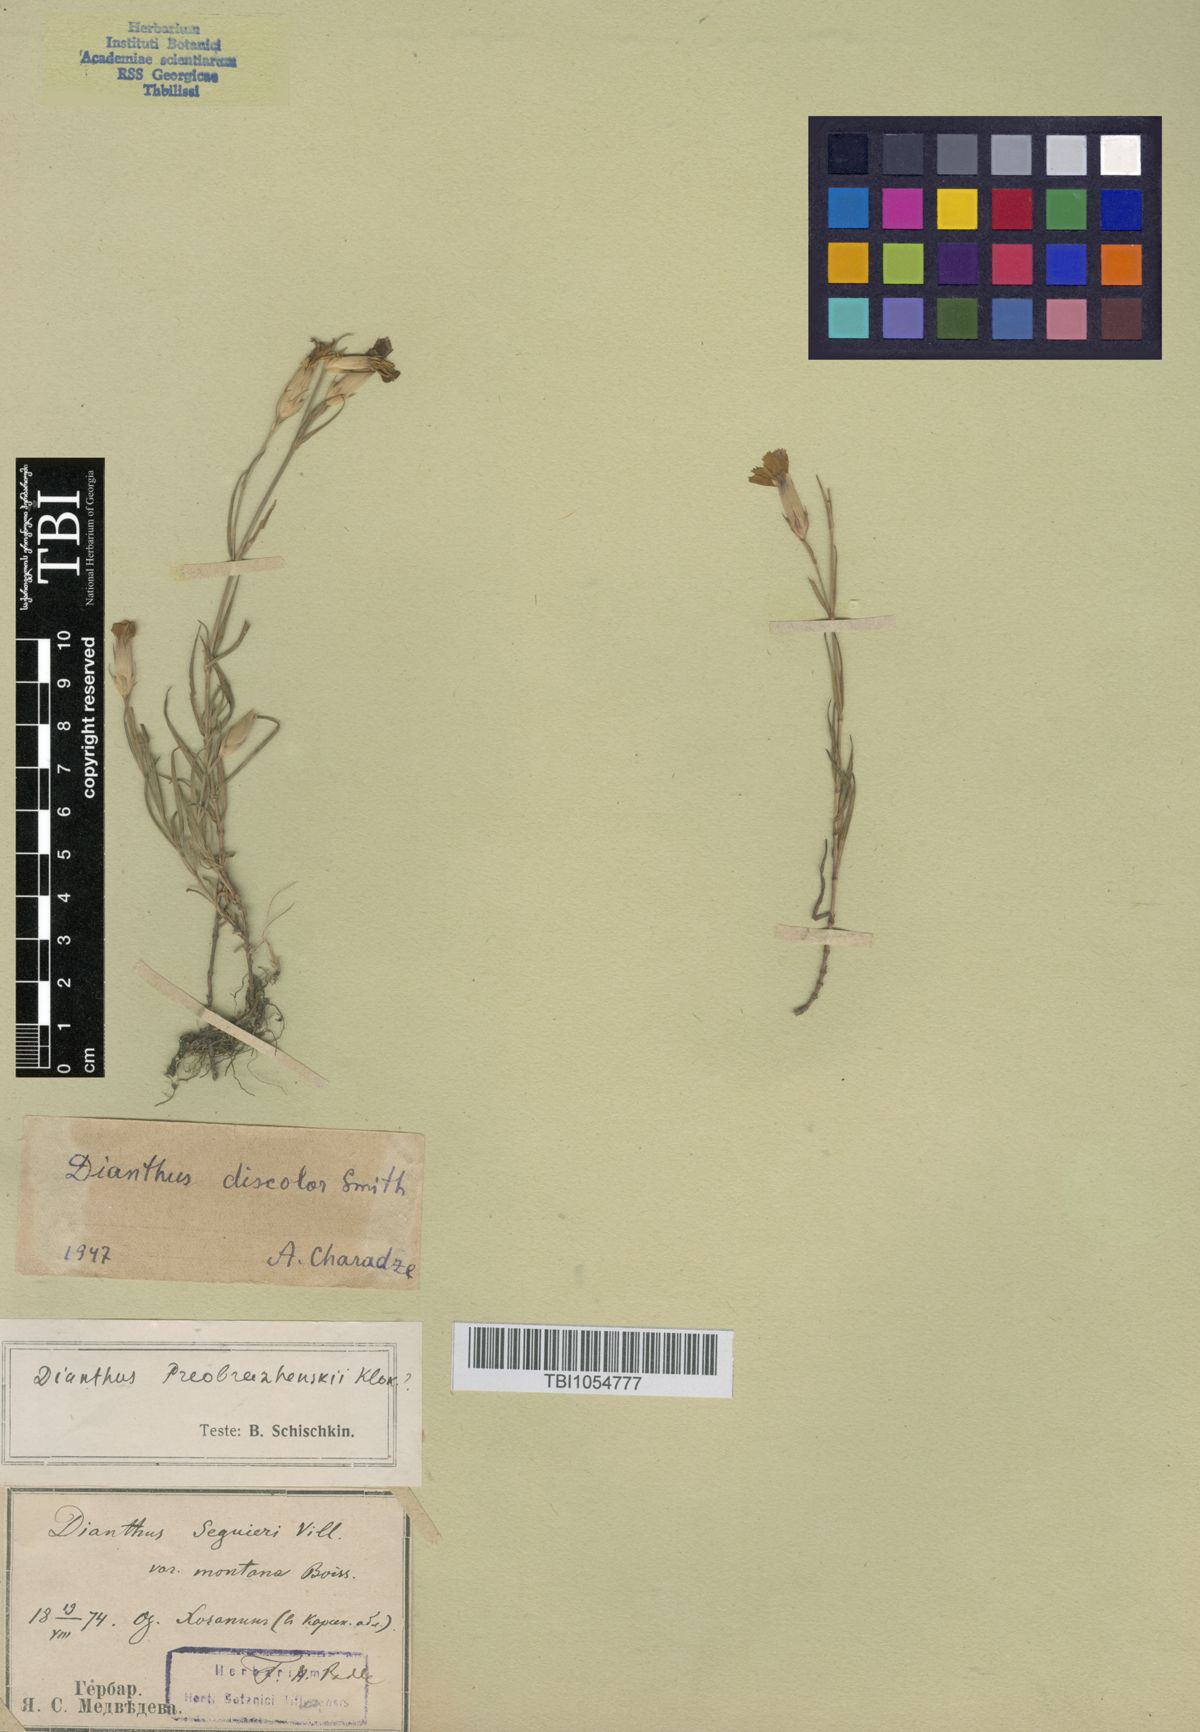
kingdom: Plantae
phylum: Tracheophyta
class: Magnoliopsida
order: Caryophyllales
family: Caryophyllaceae
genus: Dianthus
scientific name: Dianthus bicolor
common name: Bicolour pink
